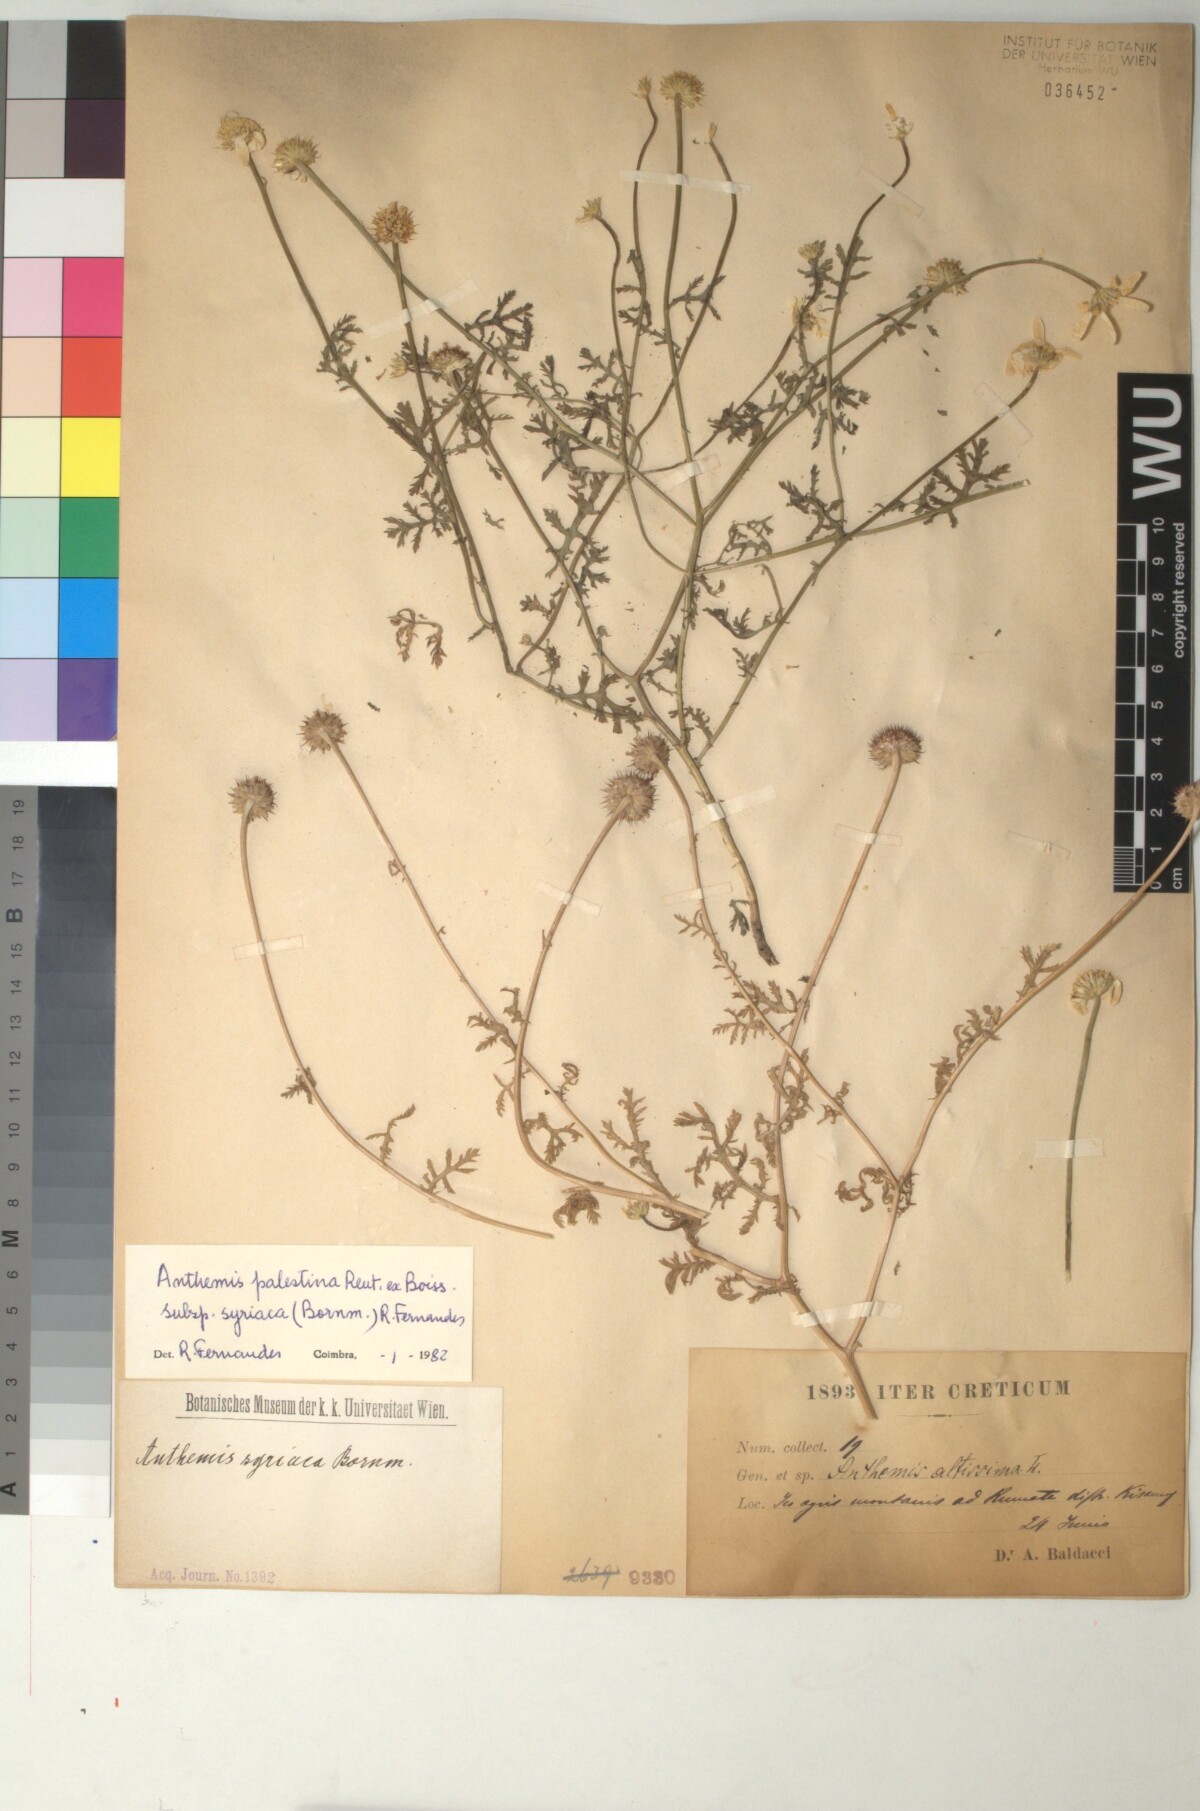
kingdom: Plantae
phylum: Tracheophyta
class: Magnoliopsida
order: Asterales
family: Asteraceae
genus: Cota
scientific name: Cota palaestina
